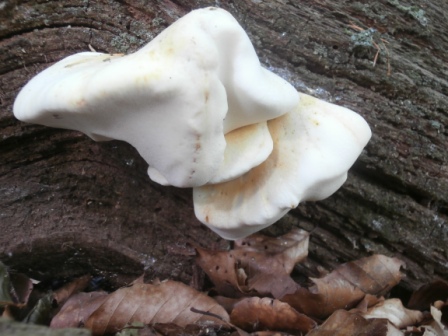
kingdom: Fungi
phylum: Basidiomycota
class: Agaricomycetes
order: Polyporales
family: Fomitopsidaceae
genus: Buglossoporus
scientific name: Buglossoporus quercinus
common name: egetunge
